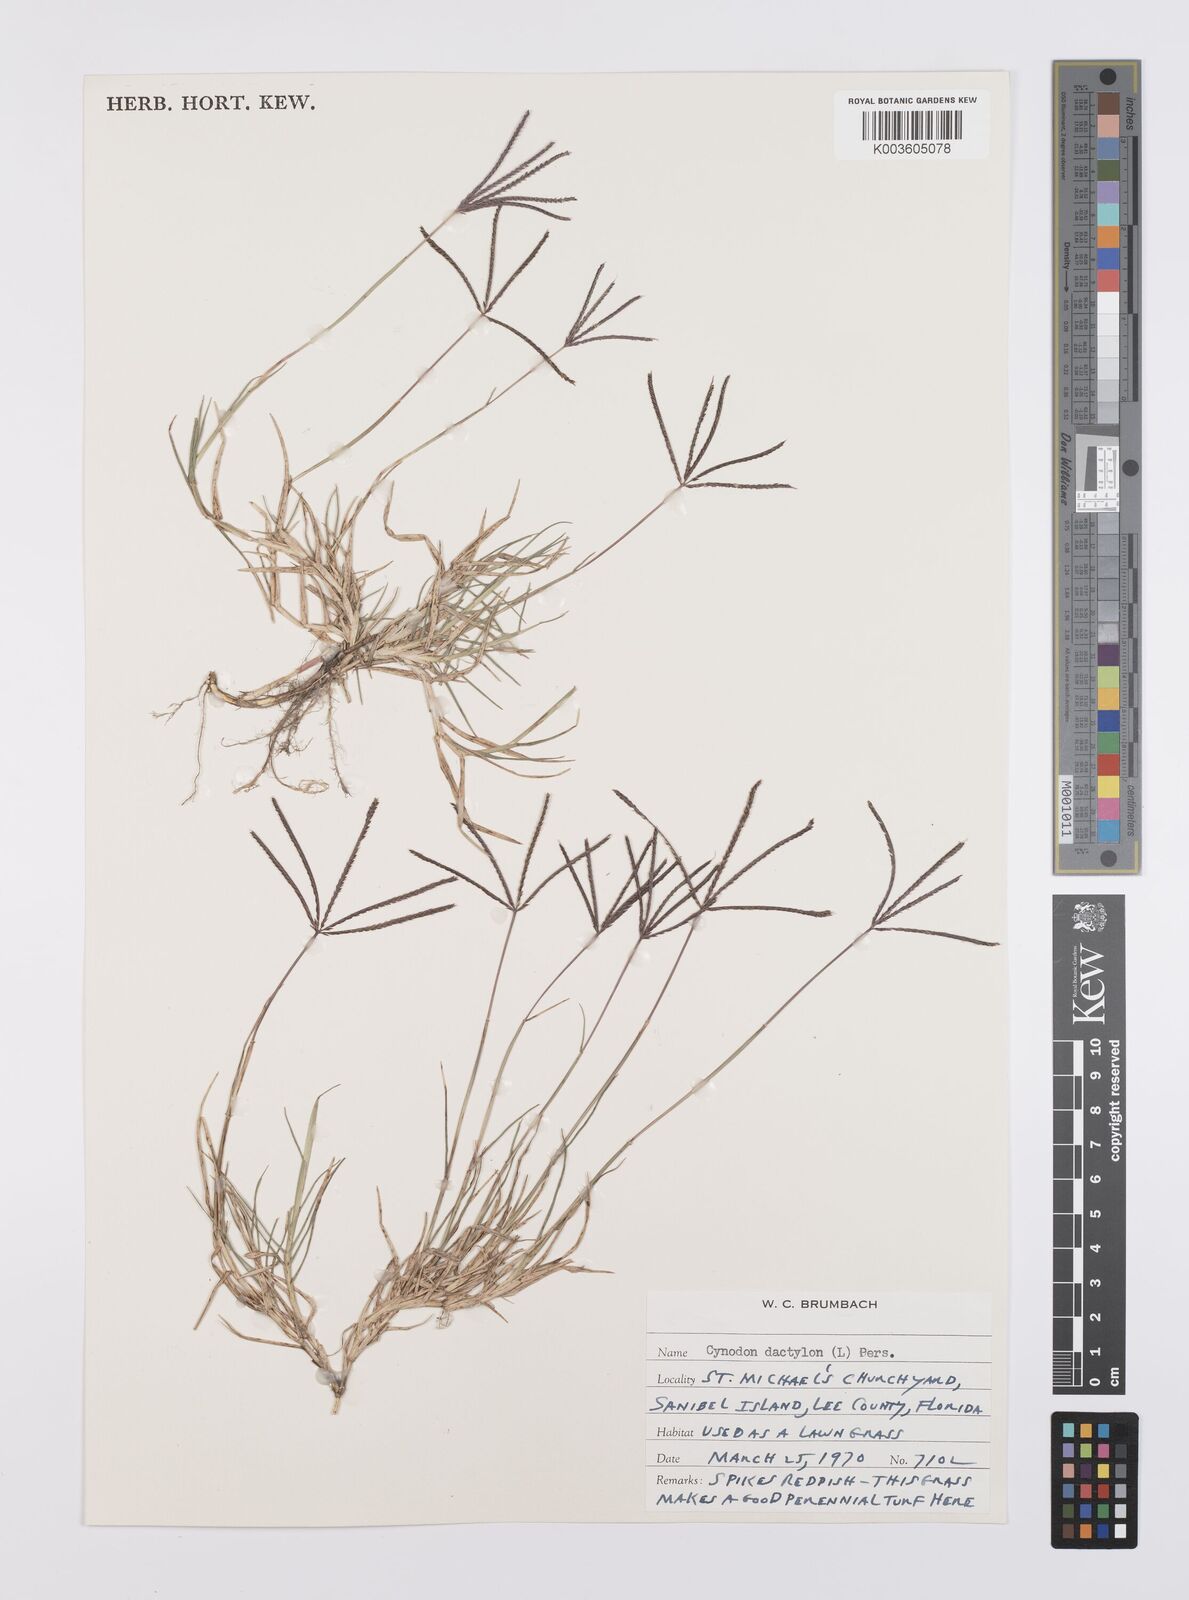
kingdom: Plantae
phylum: Tracheophyta
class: Liliopsida
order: Poales
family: Poaceae
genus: Cynodon
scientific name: Cynodon dactylon
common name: Bermuda grass
